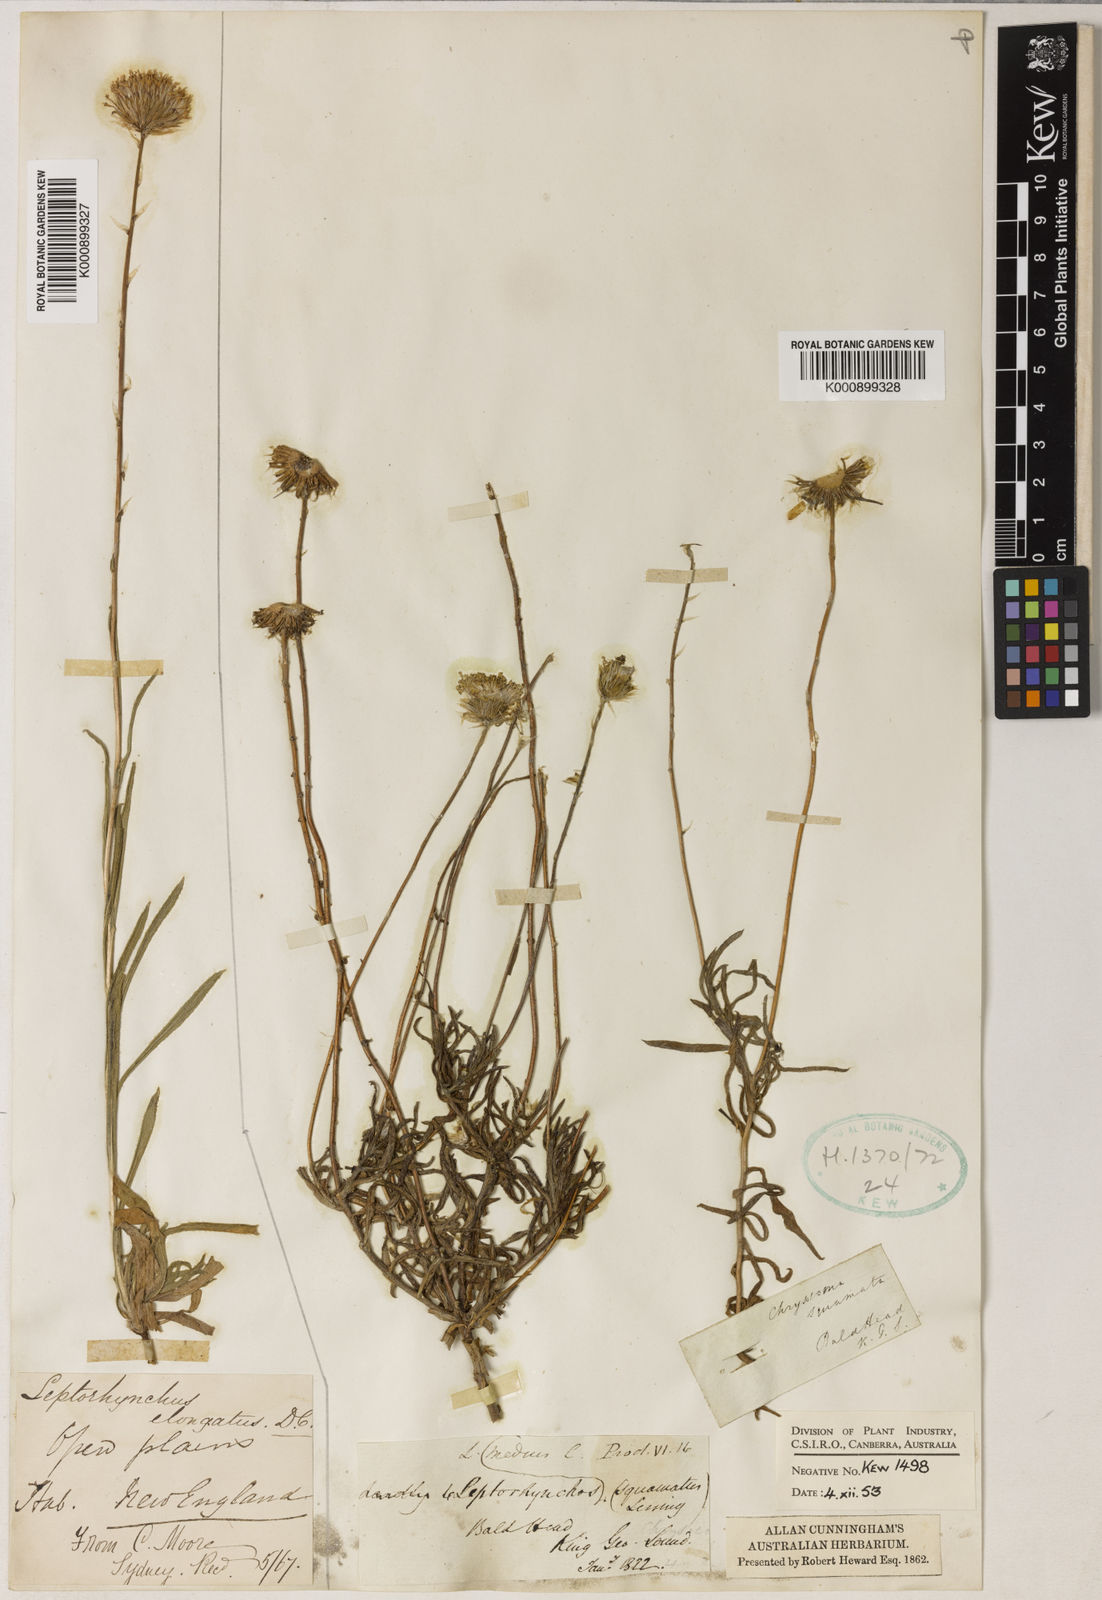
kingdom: Plantae
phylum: Tracheophyta
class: Magnoliopsida
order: Asterales
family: Asteraceae
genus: Leptorhynchos
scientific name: Leptorhynchos elongatus
